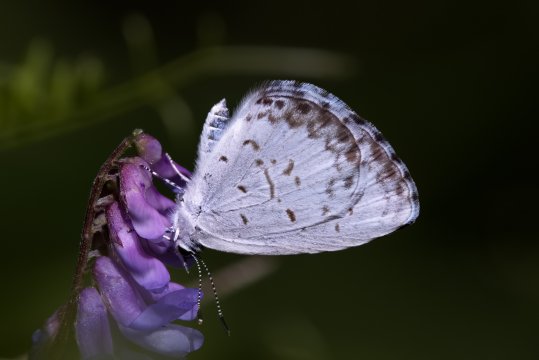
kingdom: Animalia
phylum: Arthropoda
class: Insecta
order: Lepidoptera
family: Lycaenidae
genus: Celastrina
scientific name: Celastrina lucia
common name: Northern Spring Azure
